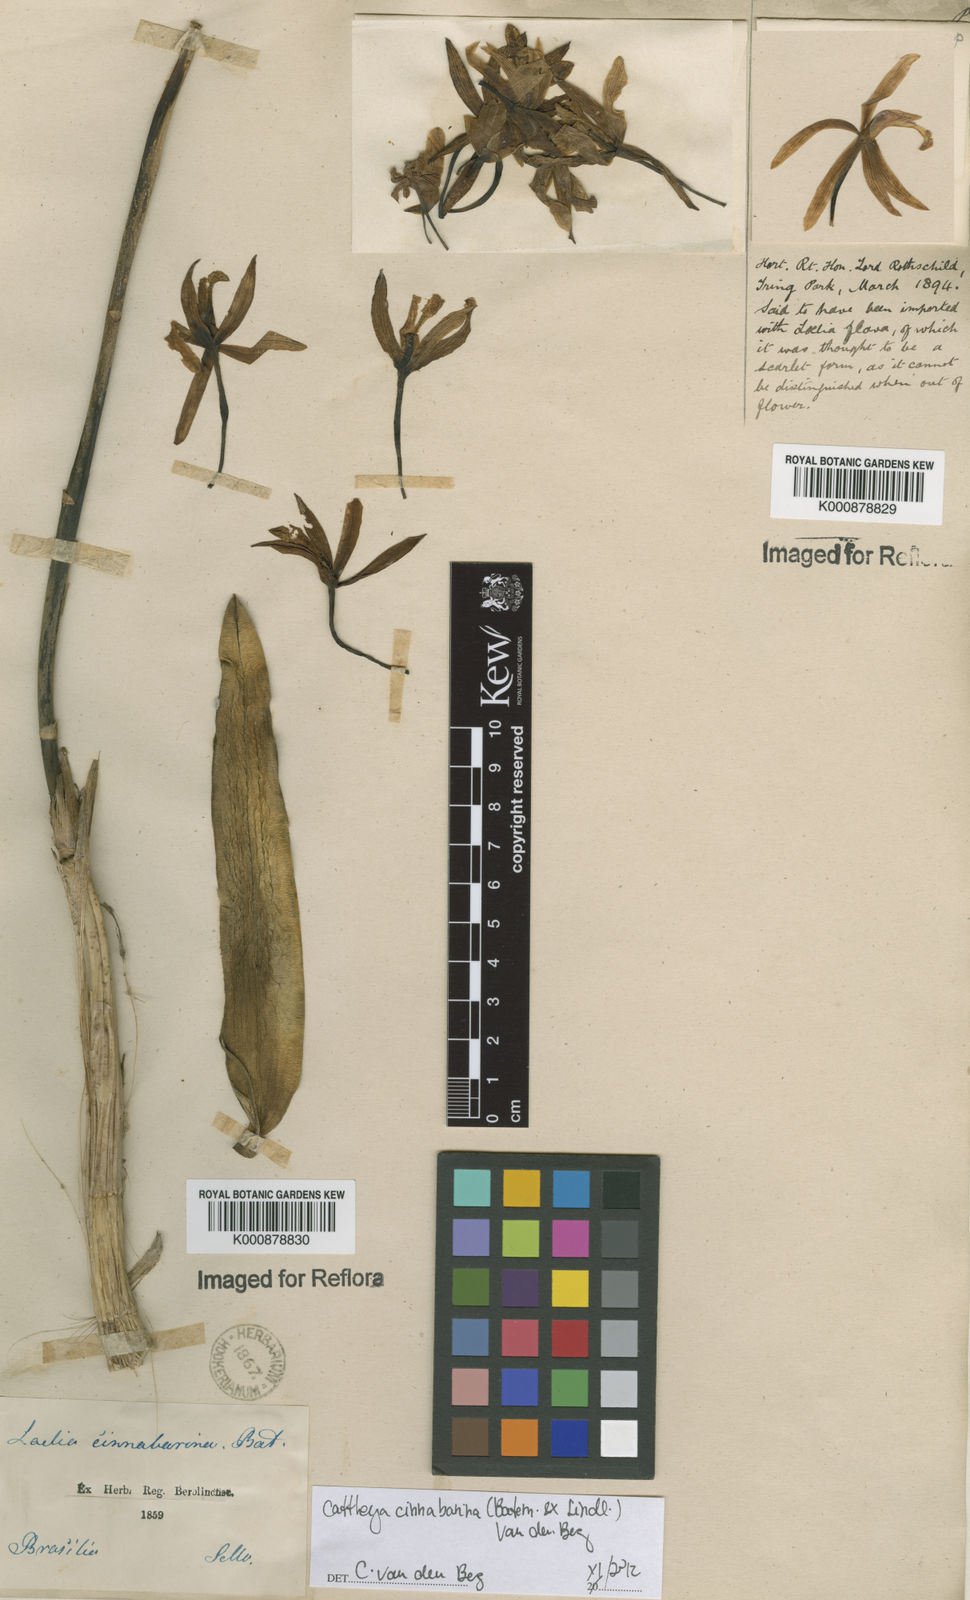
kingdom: Plantae
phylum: Tracheophyta
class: Liliopsida
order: Asparagales
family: Orchidaceae
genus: Cattleya
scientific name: Cattleya cinnabarina
